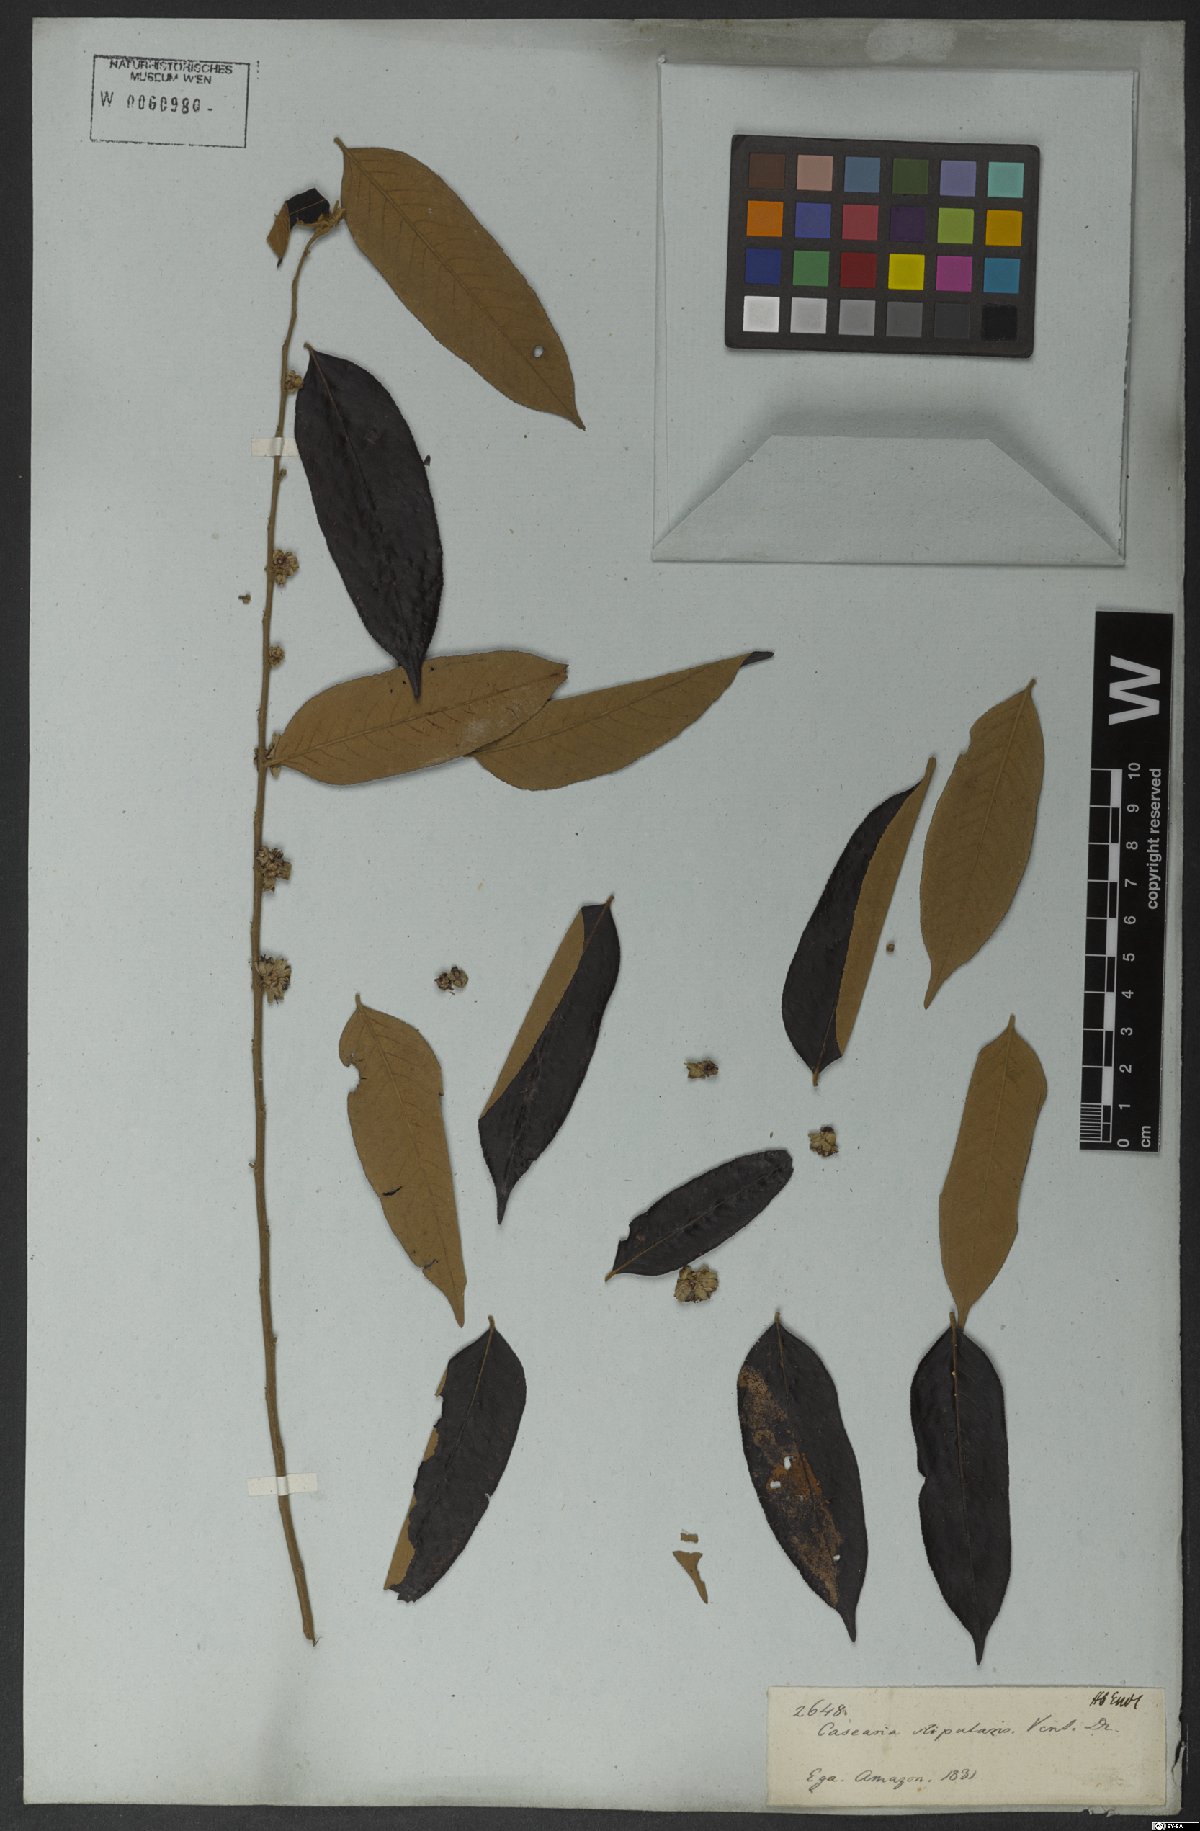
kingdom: Plantae
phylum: Tracheophyta
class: Magnoliopsida
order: Malpighiales
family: Salicaceae
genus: Casearia
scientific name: Casearia grandiflora
